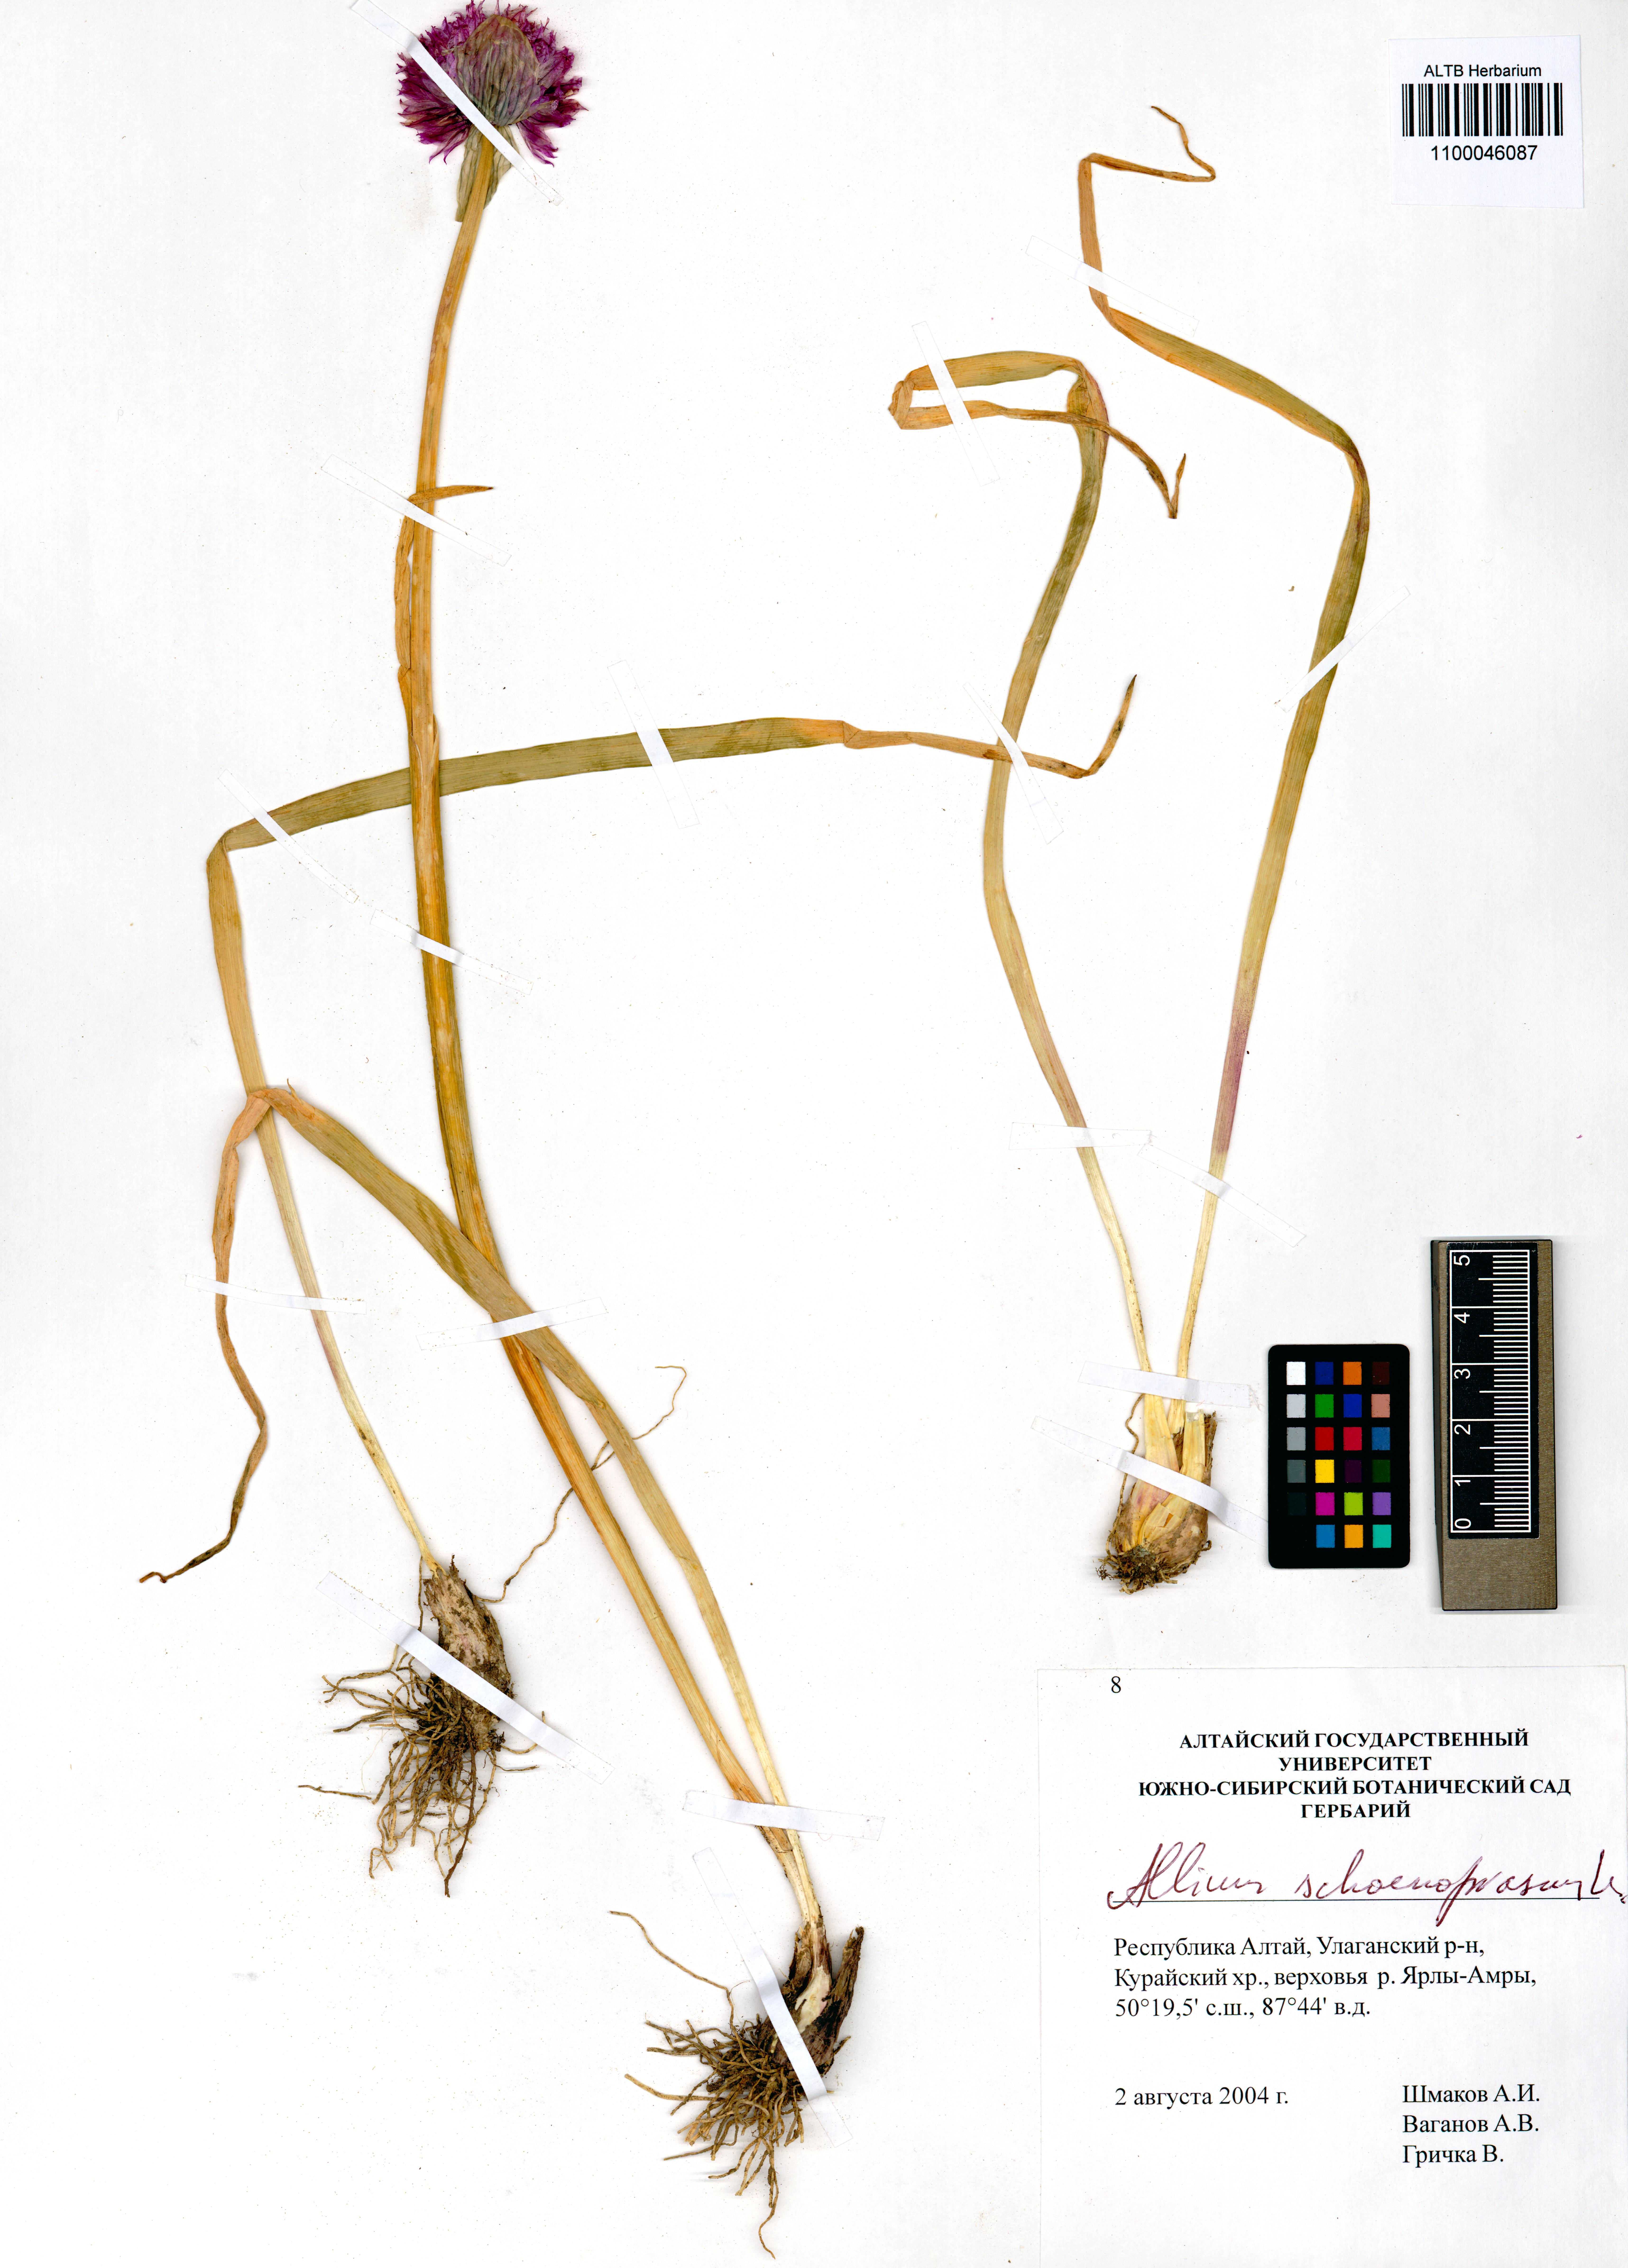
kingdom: Plantae
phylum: Tracheophyta
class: Liliopsida
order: Asparagales
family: Amaryllidaceae
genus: Allium
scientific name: Allium schoenoprasum
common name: Chives
